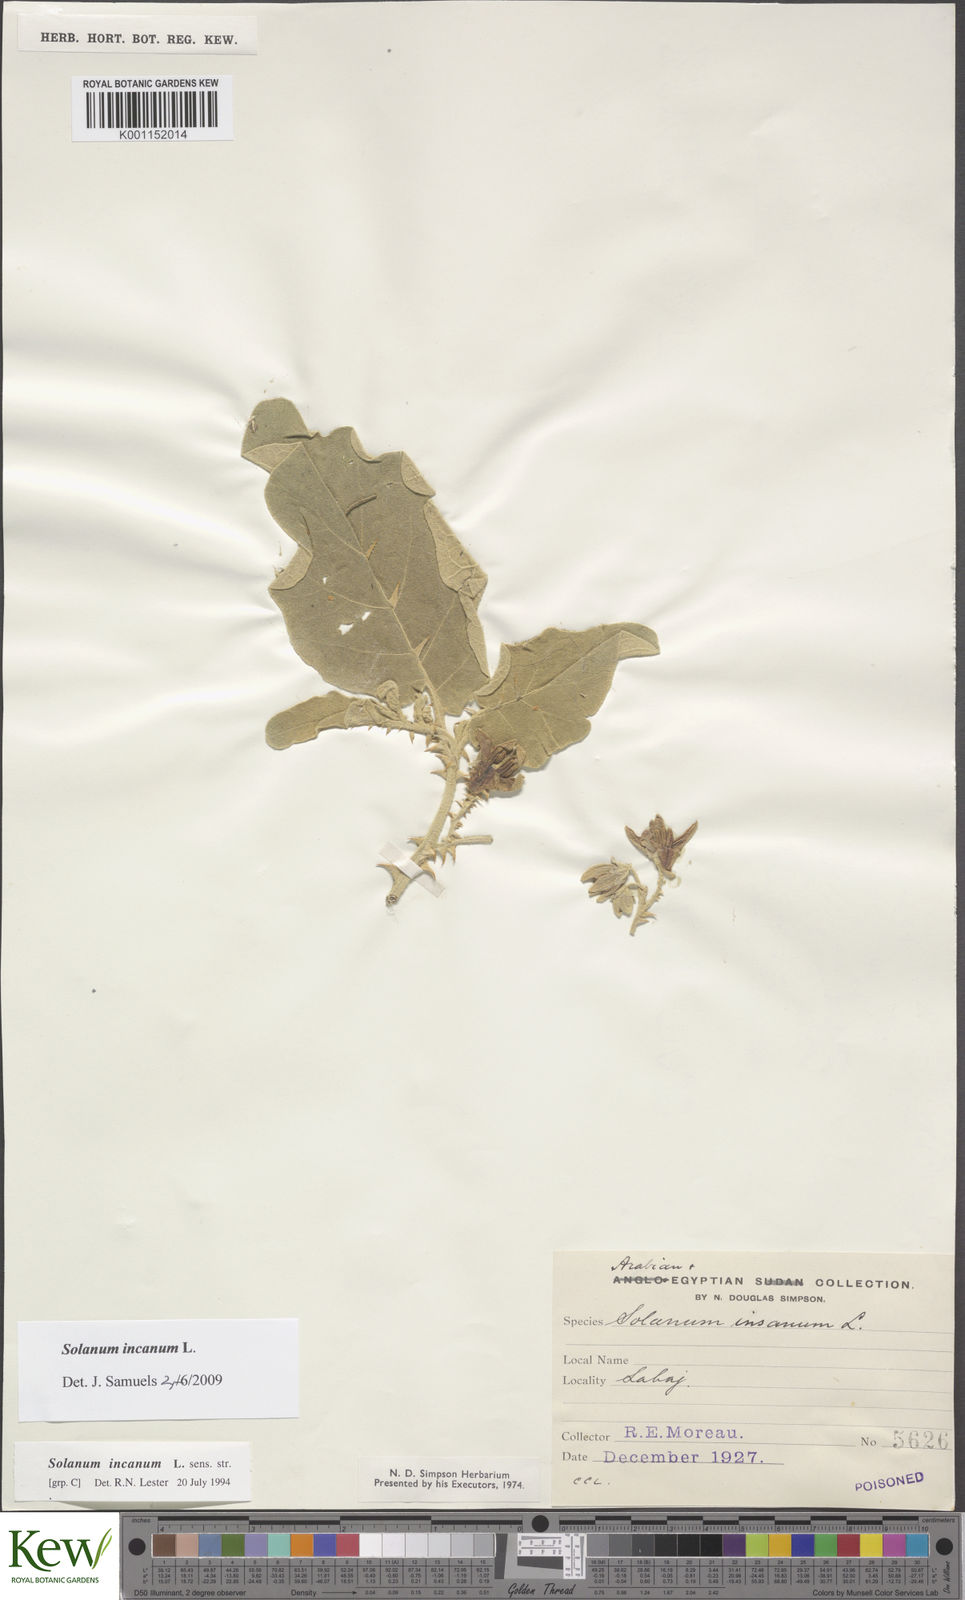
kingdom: Plantae
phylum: Tracheophyta
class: Magnoliopsida
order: Solanales
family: Solanaceae
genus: Solanum
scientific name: Solanum incanum
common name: Bitter apple
